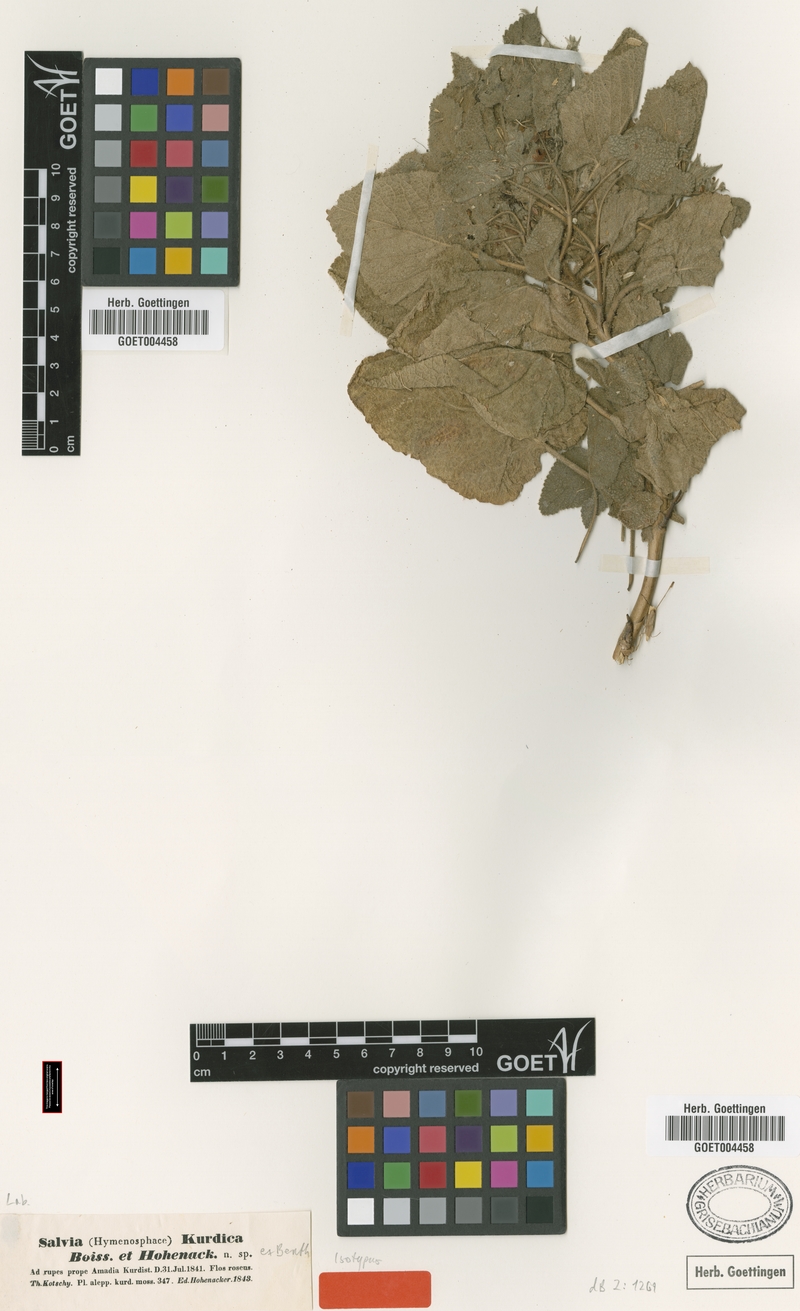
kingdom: Plantae
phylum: Tracheophyta
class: Magnoliopsida
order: Lamiales
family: Lamiaceae
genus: Salvia
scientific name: Salvia kurdica
